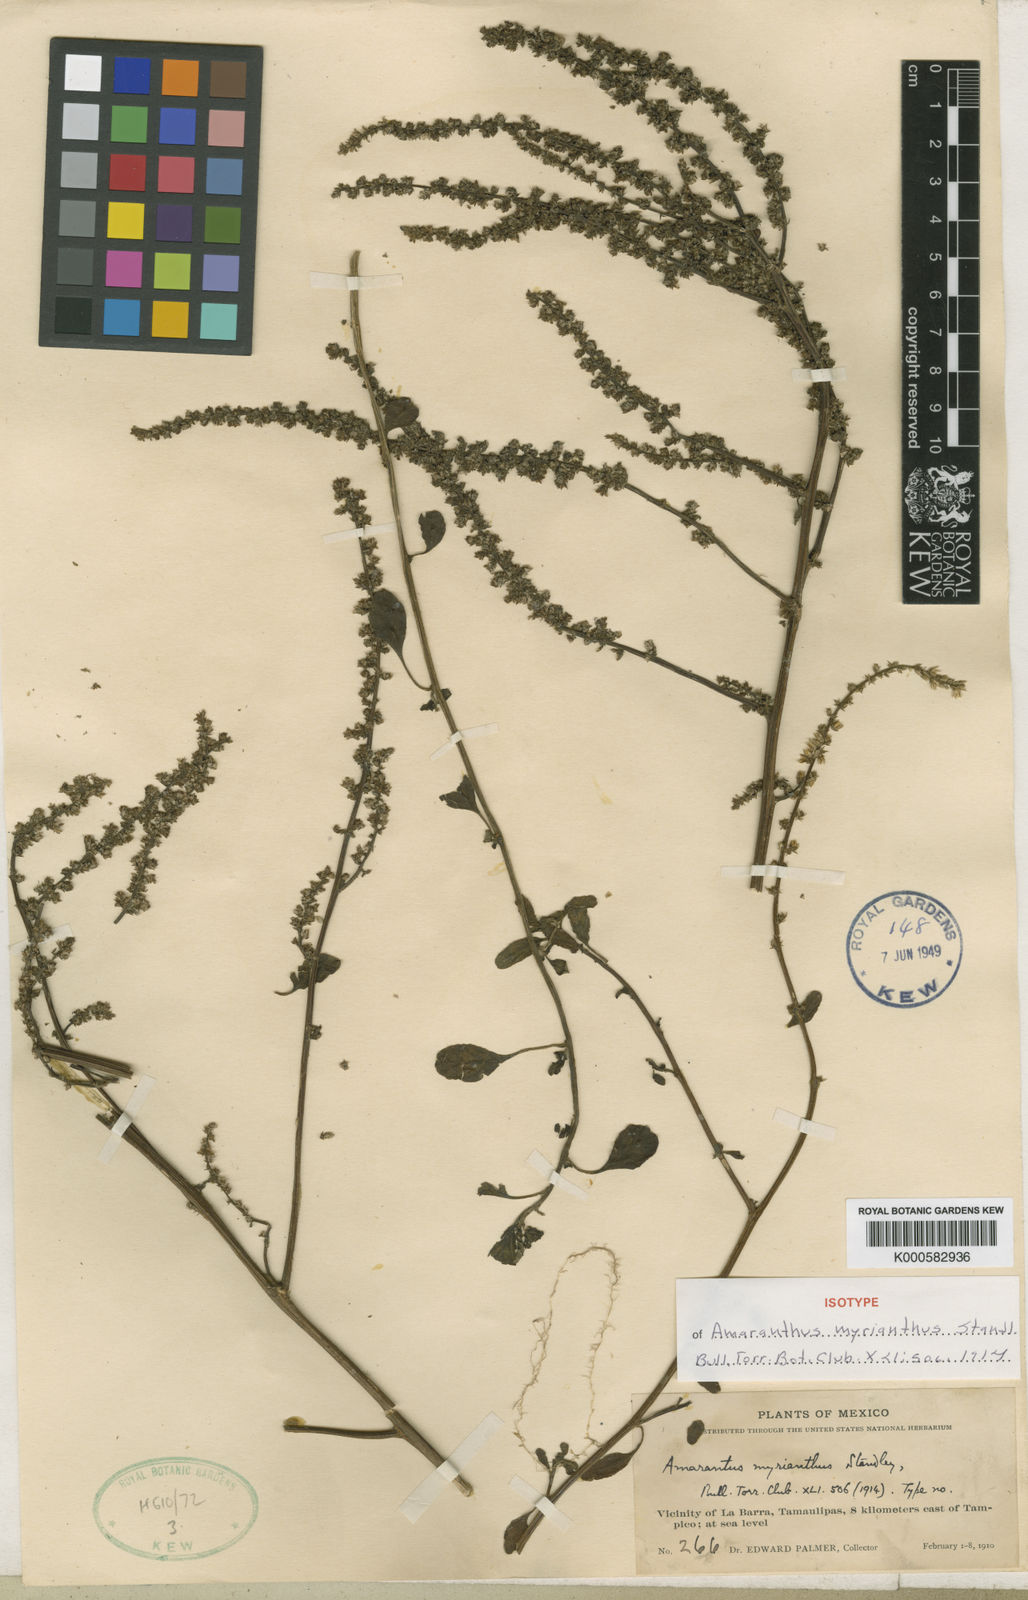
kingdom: Plantae
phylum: Tracheophyta
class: Magnoliopsida
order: Caryophyllales
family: Amaranthaceae
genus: Amaranthus
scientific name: Amaranthus greggii
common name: Josiah amaranth
